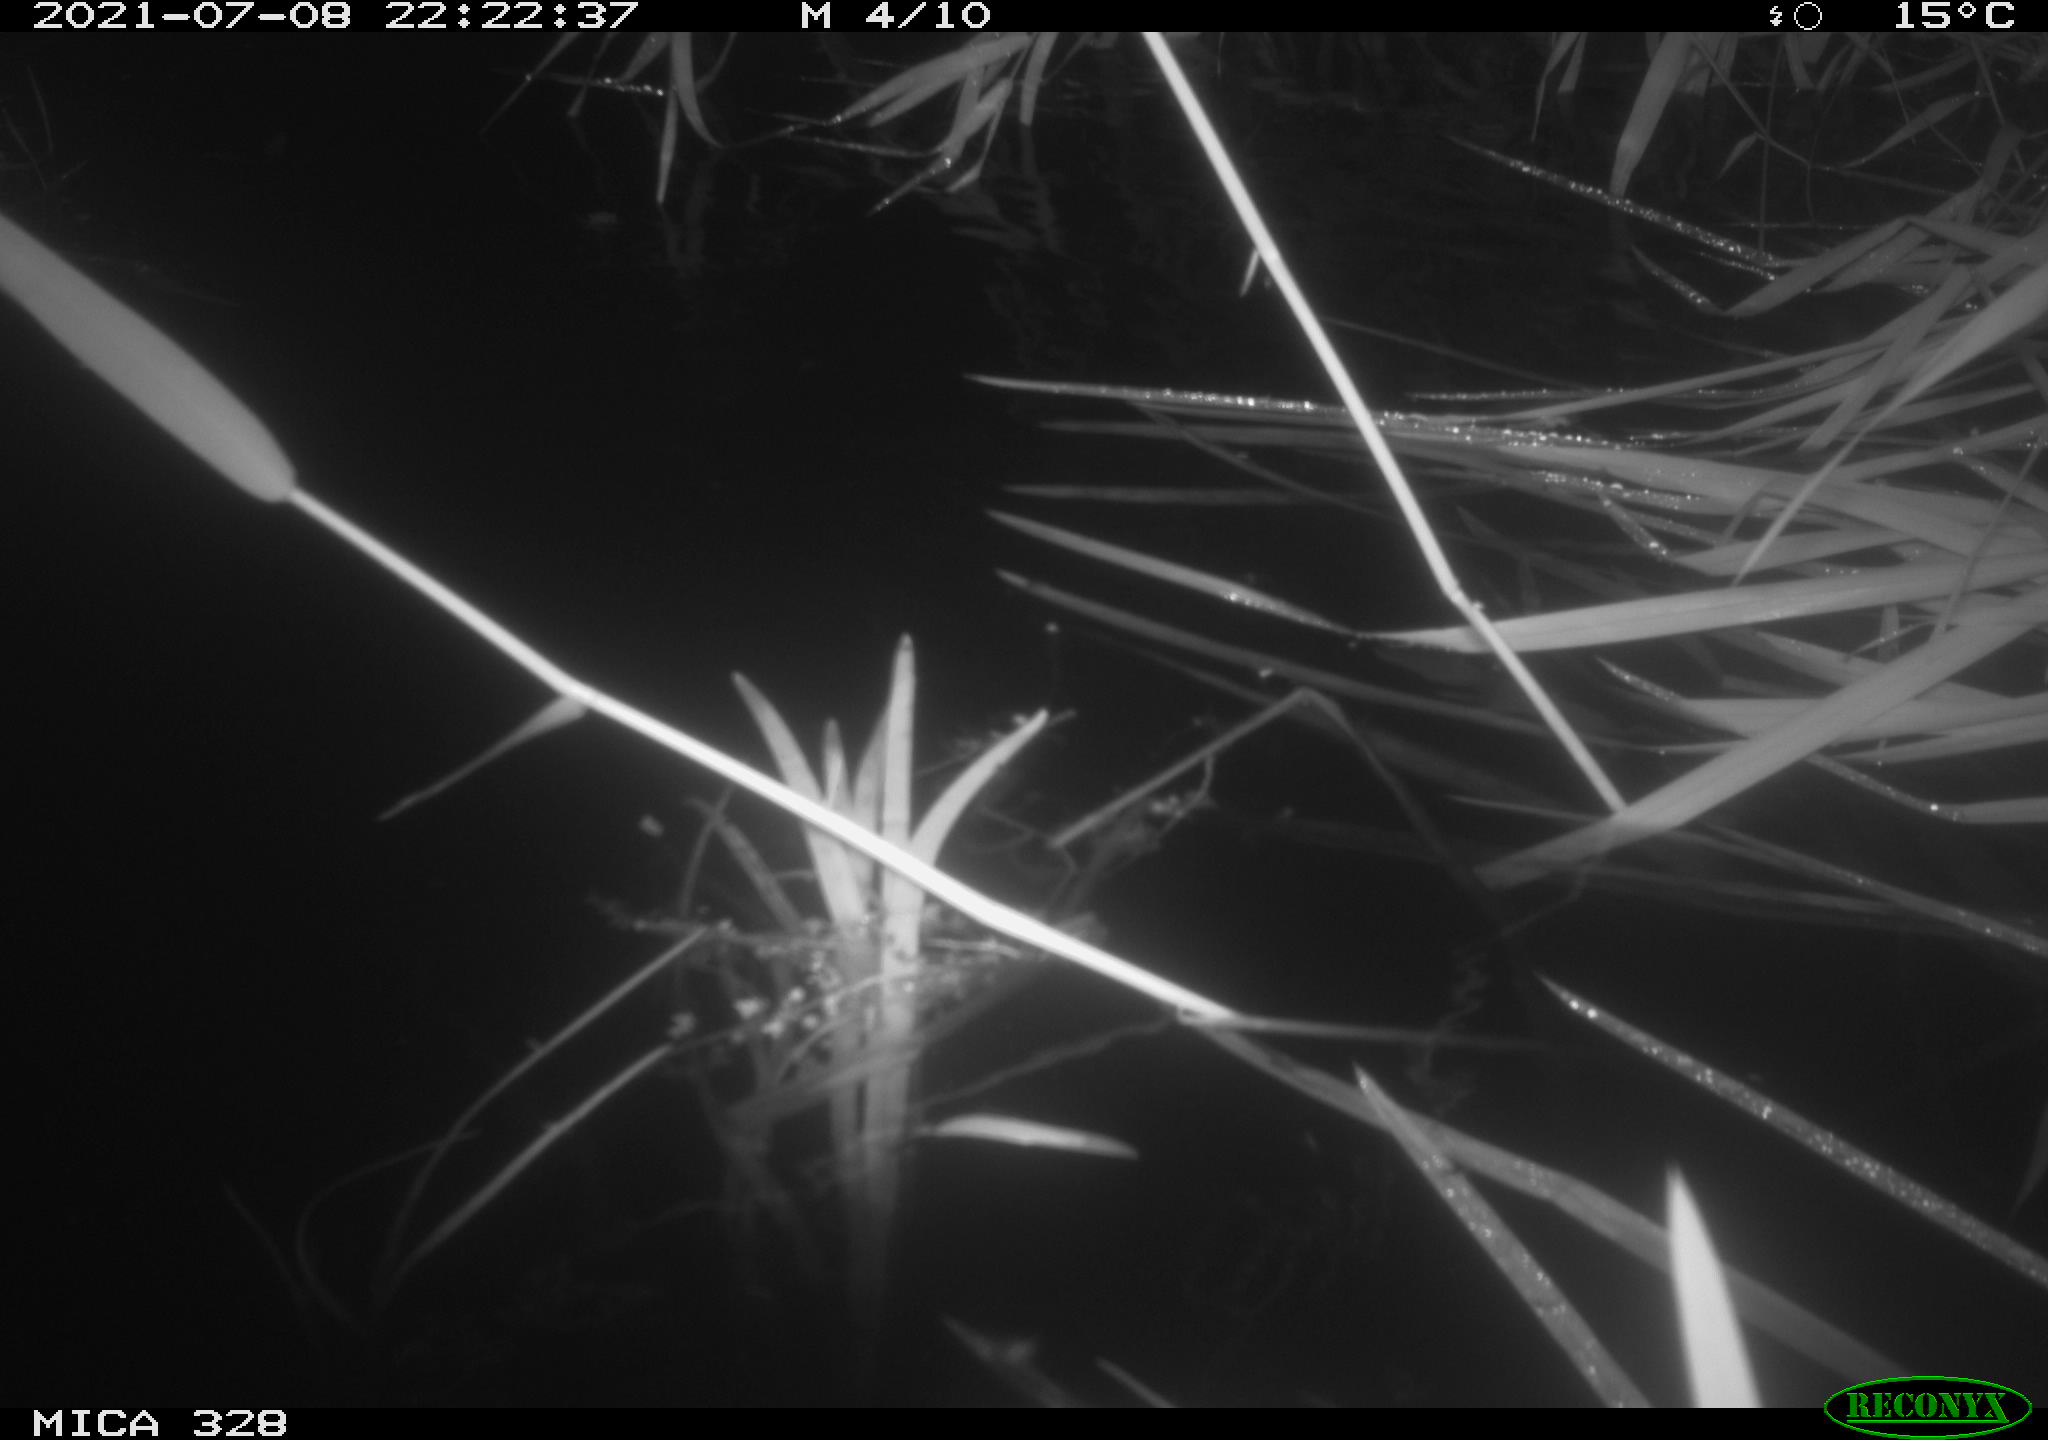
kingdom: Animalia
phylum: Chordata
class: Mammalia
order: Rodentia
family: Cricetidae
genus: Ondatra
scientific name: Ondatra zibethicus
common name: Muskrat
